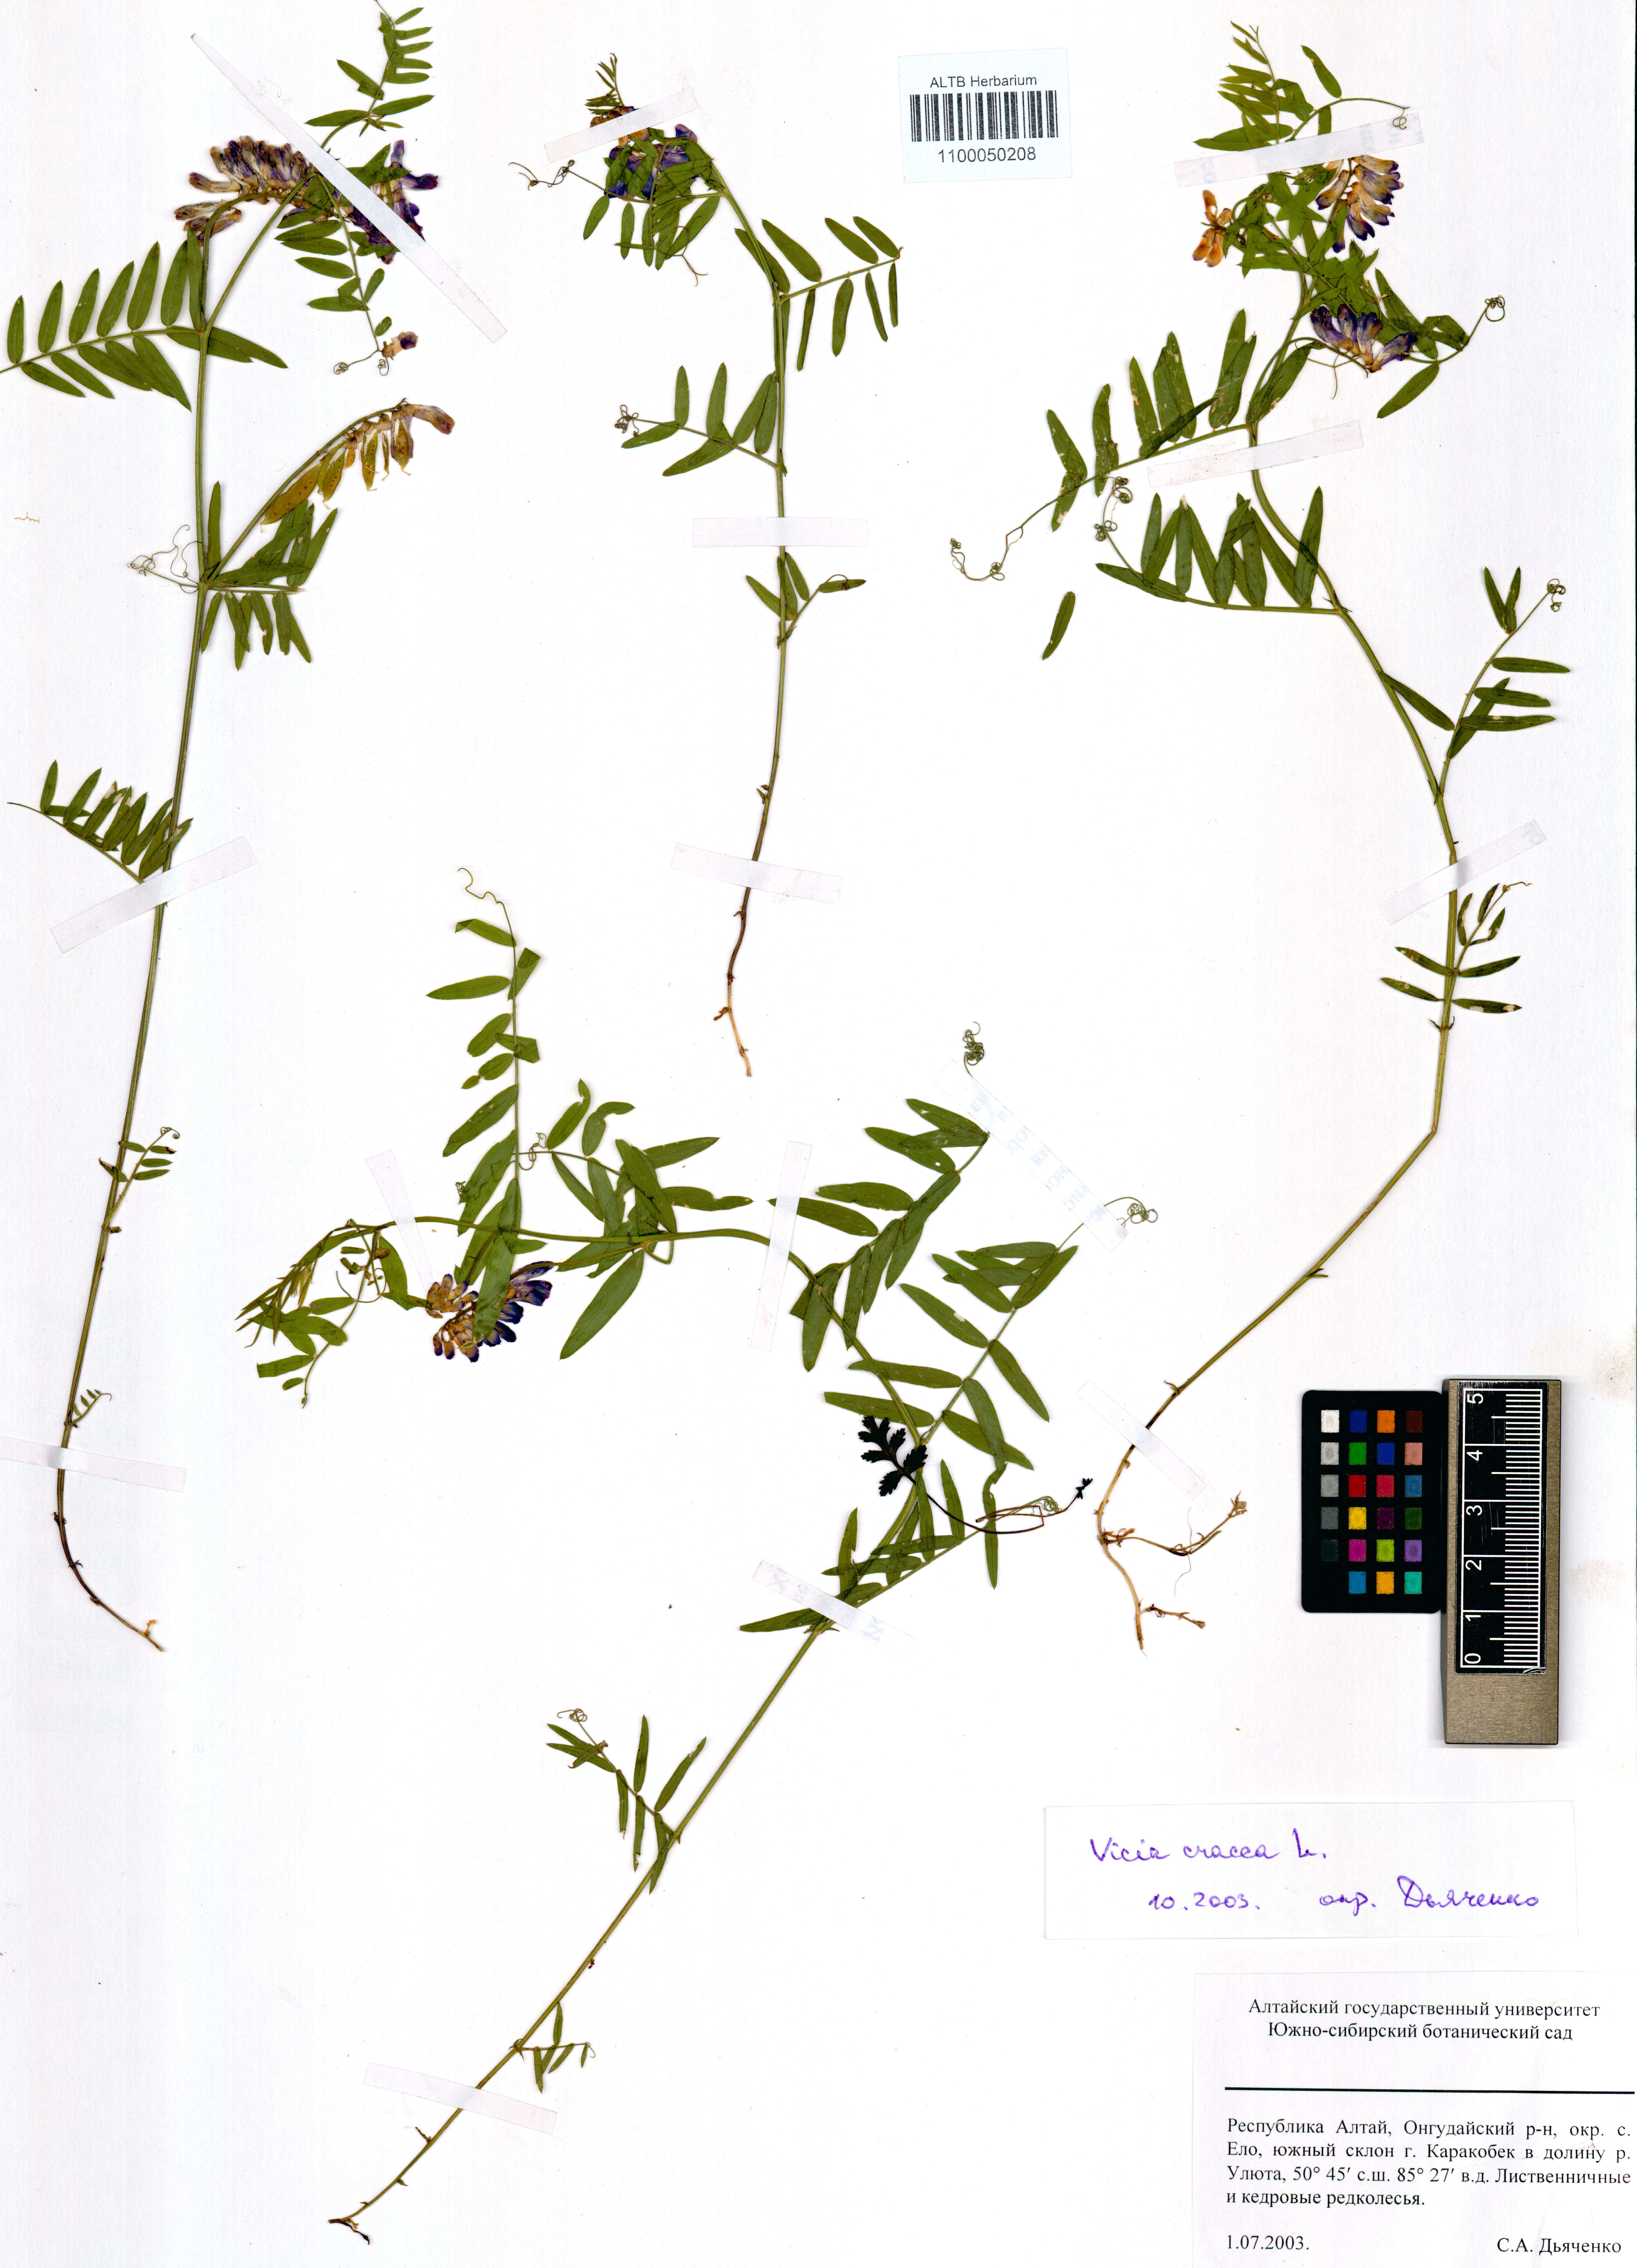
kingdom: Plantae
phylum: Tracheophyta
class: Magnoliopsida
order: Fabales
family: Fabaceae
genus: Vicia
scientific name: Vicia cracca
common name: Bird vetch
